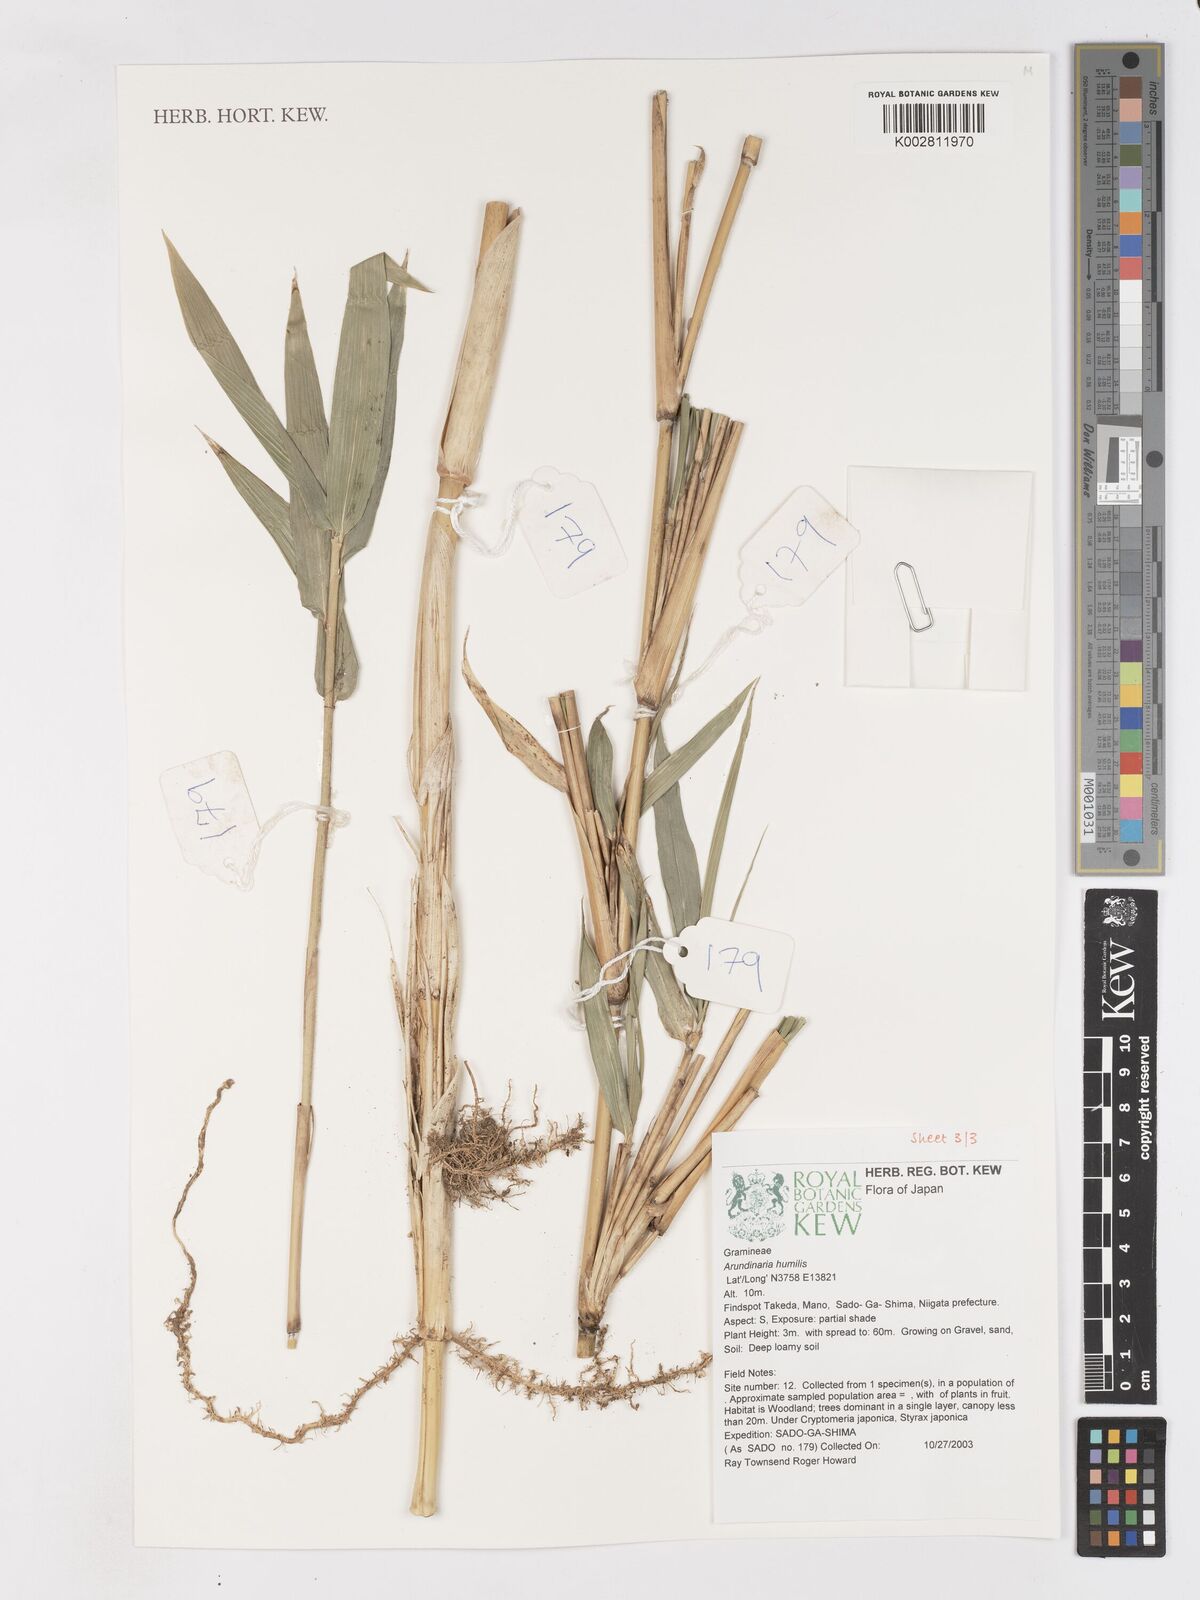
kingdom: Plantae
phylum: Tracheophyta
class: Liliopsida
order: Poales
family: Poaceae
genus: Pseudosasa
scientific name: Pseudosasa humilis
